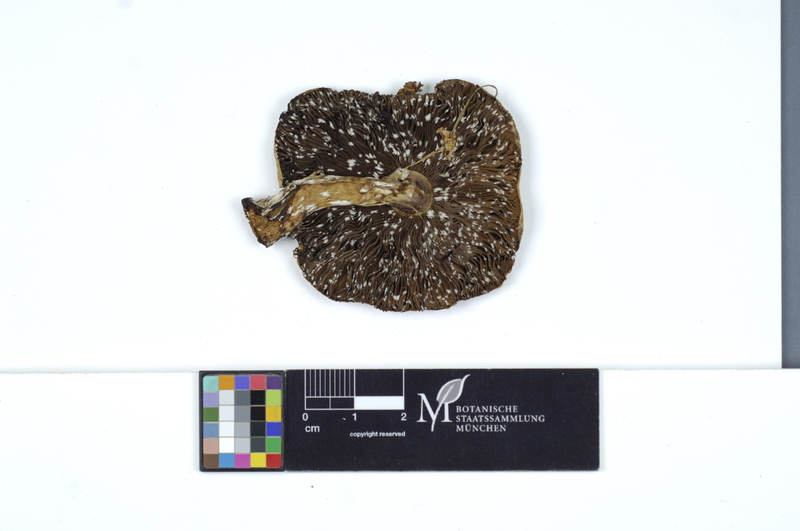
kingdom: Fungi
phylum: Basidiomycota
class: Agaricomycetes
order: Agaricales
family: Agaricaceae
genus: Agaricus
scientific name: Agaricus langei
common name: Scaly wood mushroom
